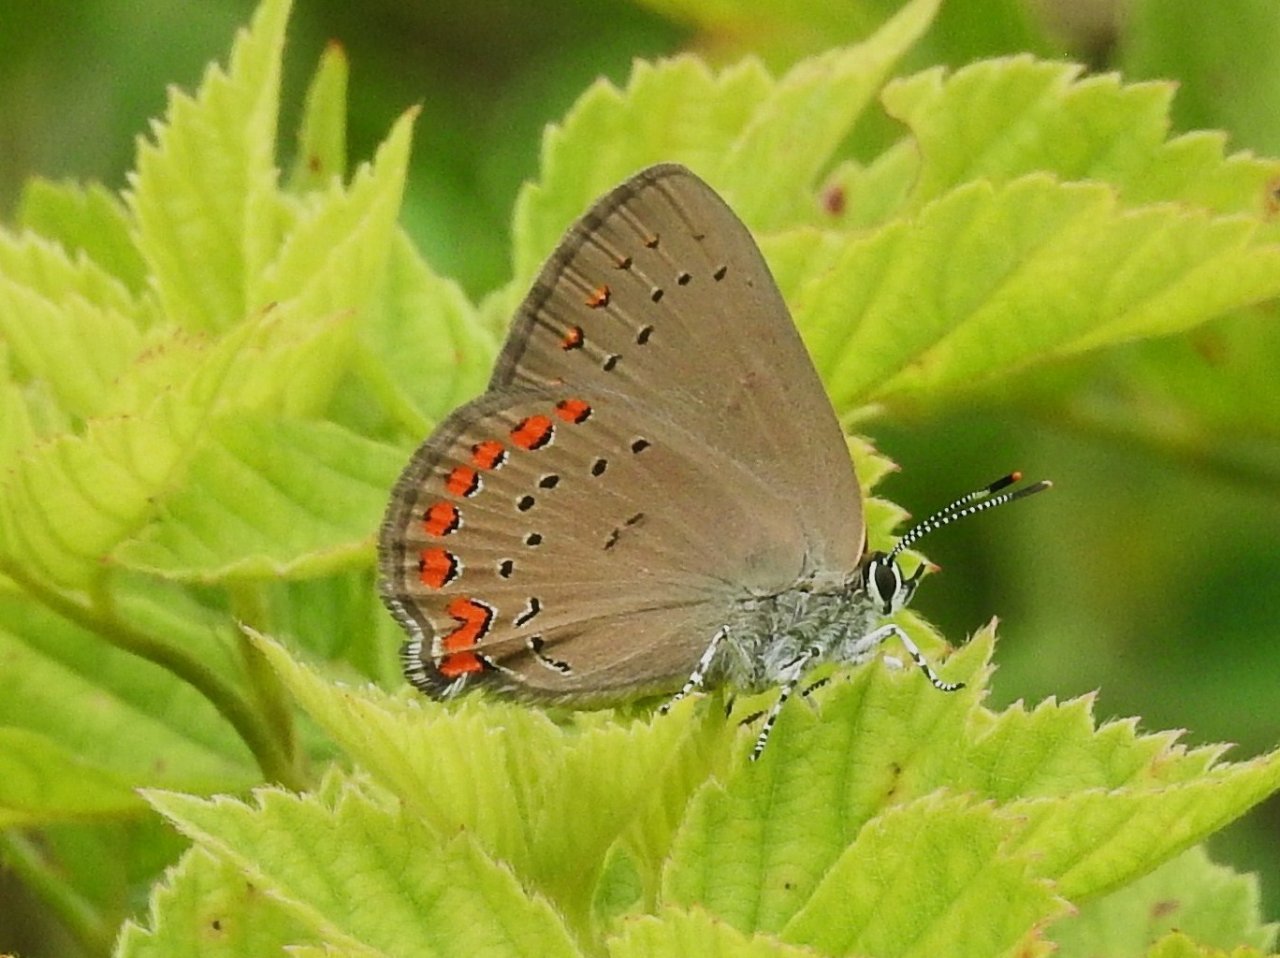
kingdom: Animalia
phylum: Arthropoda
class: Insecta
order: Lepidoptera
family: Lycaenidae
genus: Harkenclenus
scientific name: Harkenclenus titus
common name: Coral Hairstreak
